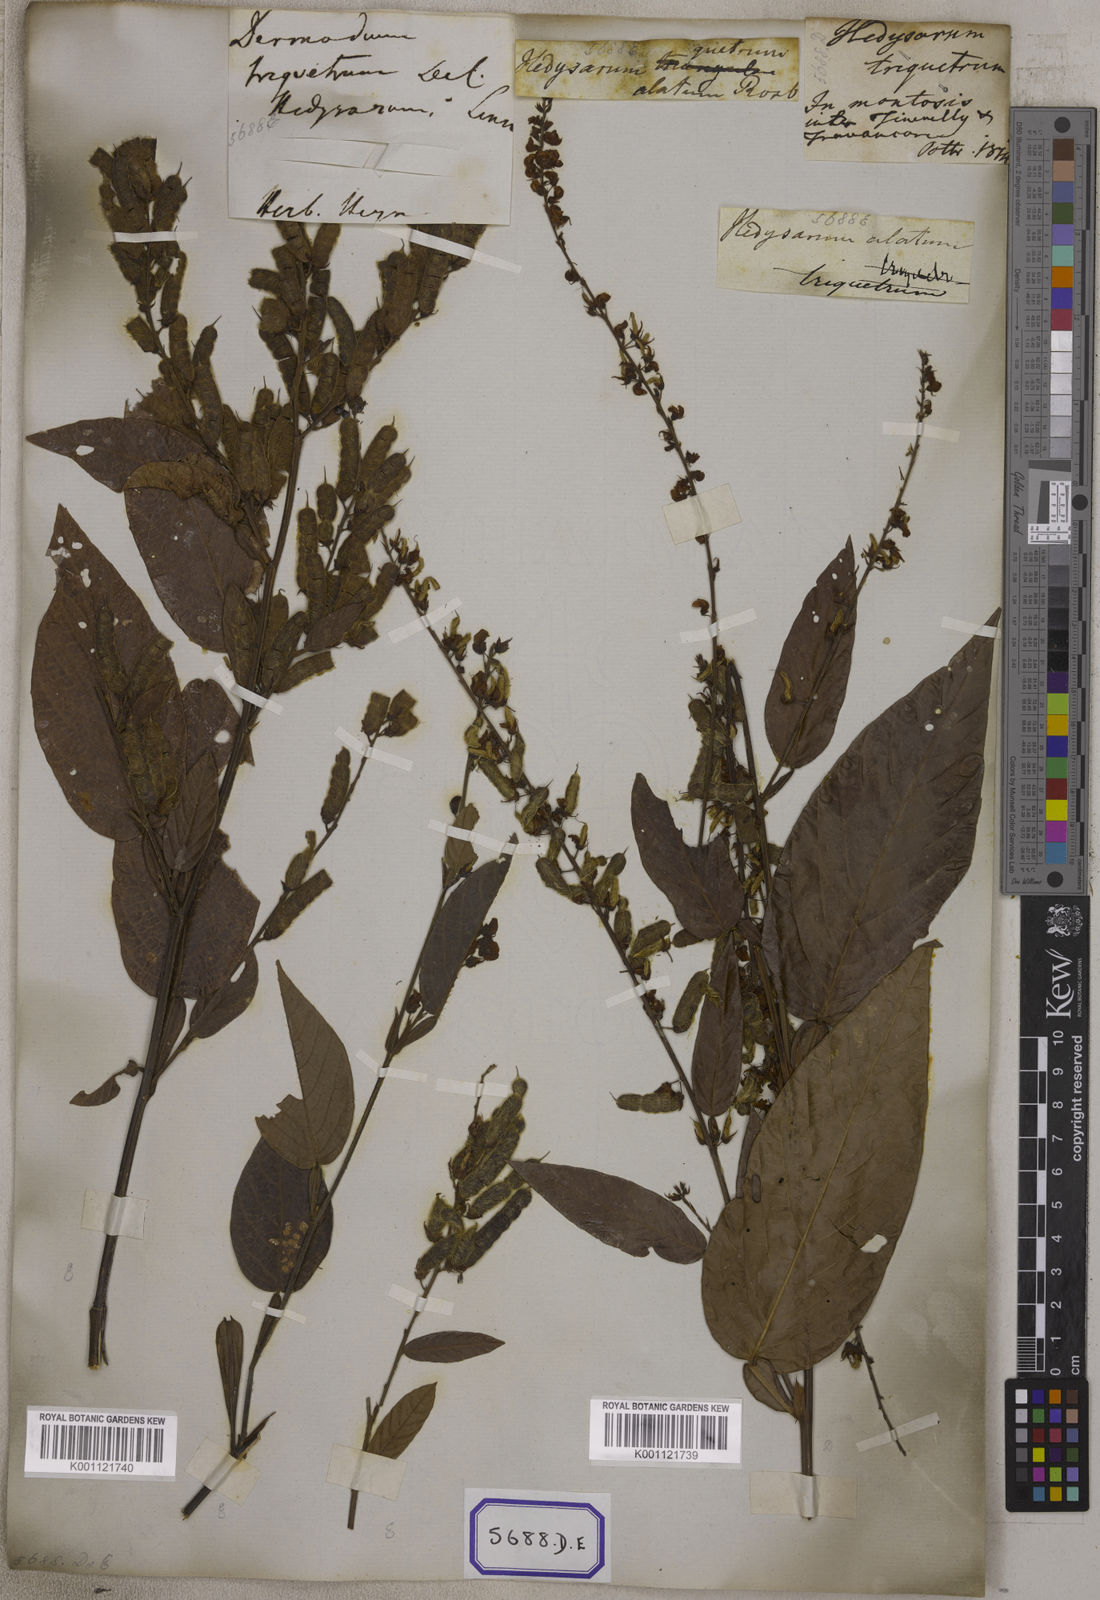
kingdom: Plantae
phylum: Tracheophyta
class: Magnoliopsida
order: Fabales
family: Fabaceae
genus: Tadehagi
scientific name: Tadehagi triquetrum
